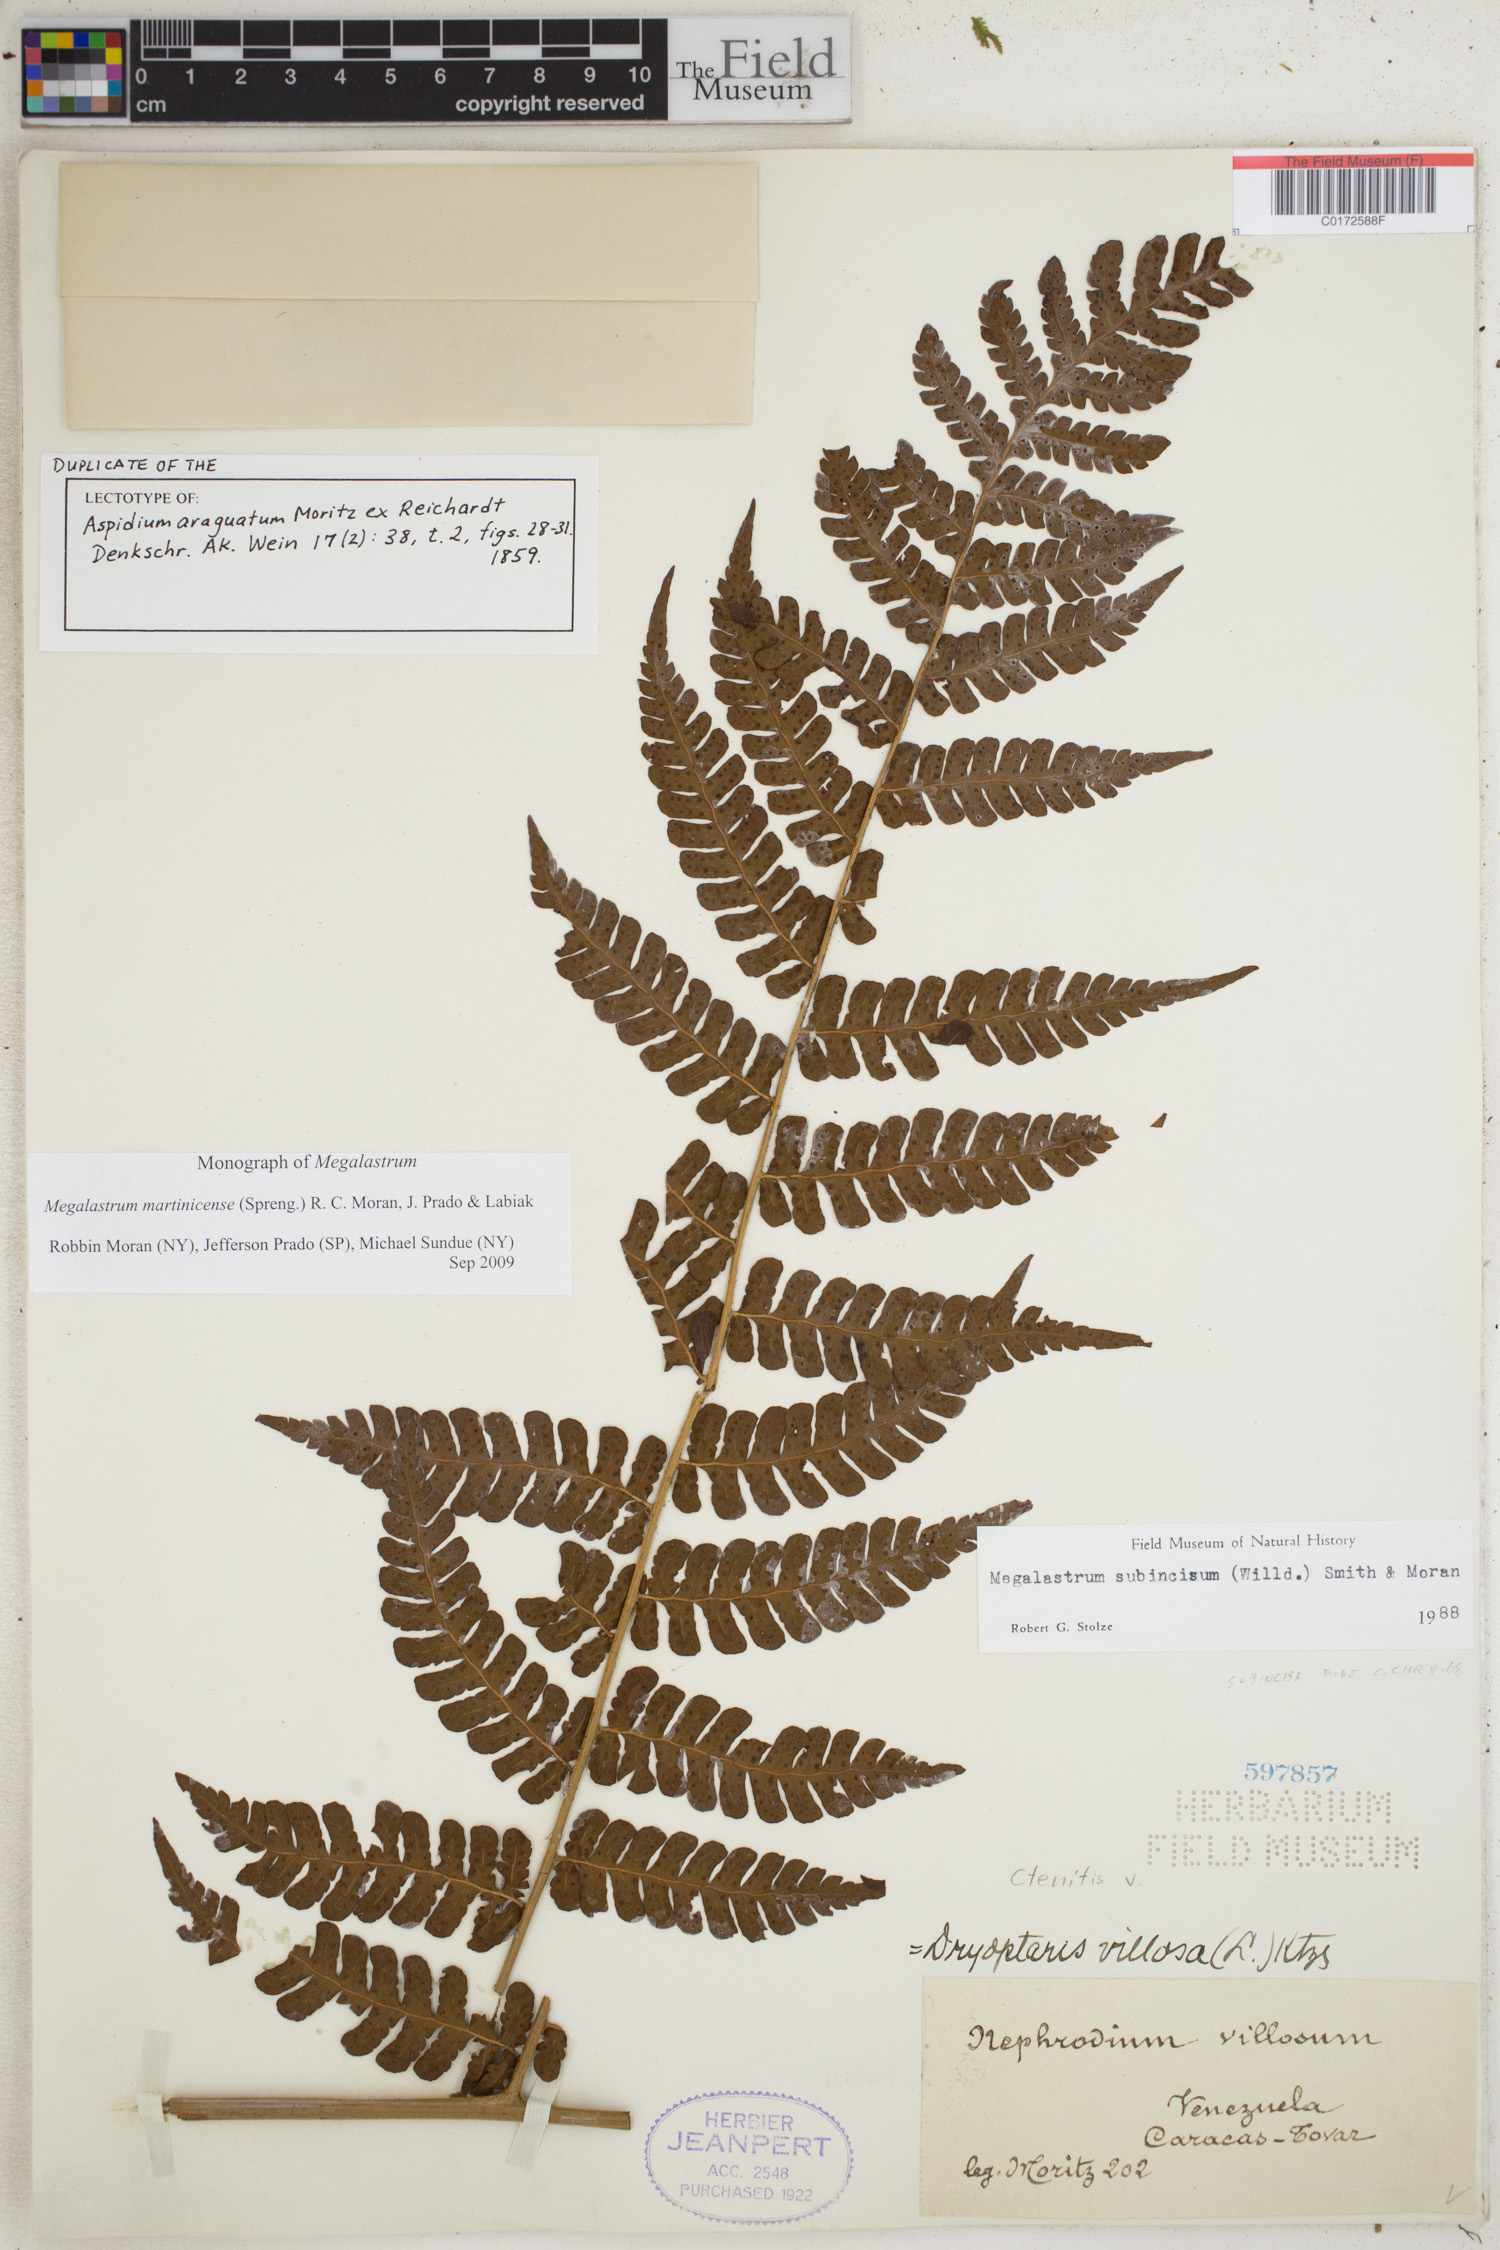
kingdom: Plantae
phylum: Tracheophyta
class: Polypodiopsida
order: Polypodiales
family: Dryopteridaceae
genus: Megalastrum
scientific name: Megalastrum martinicense
